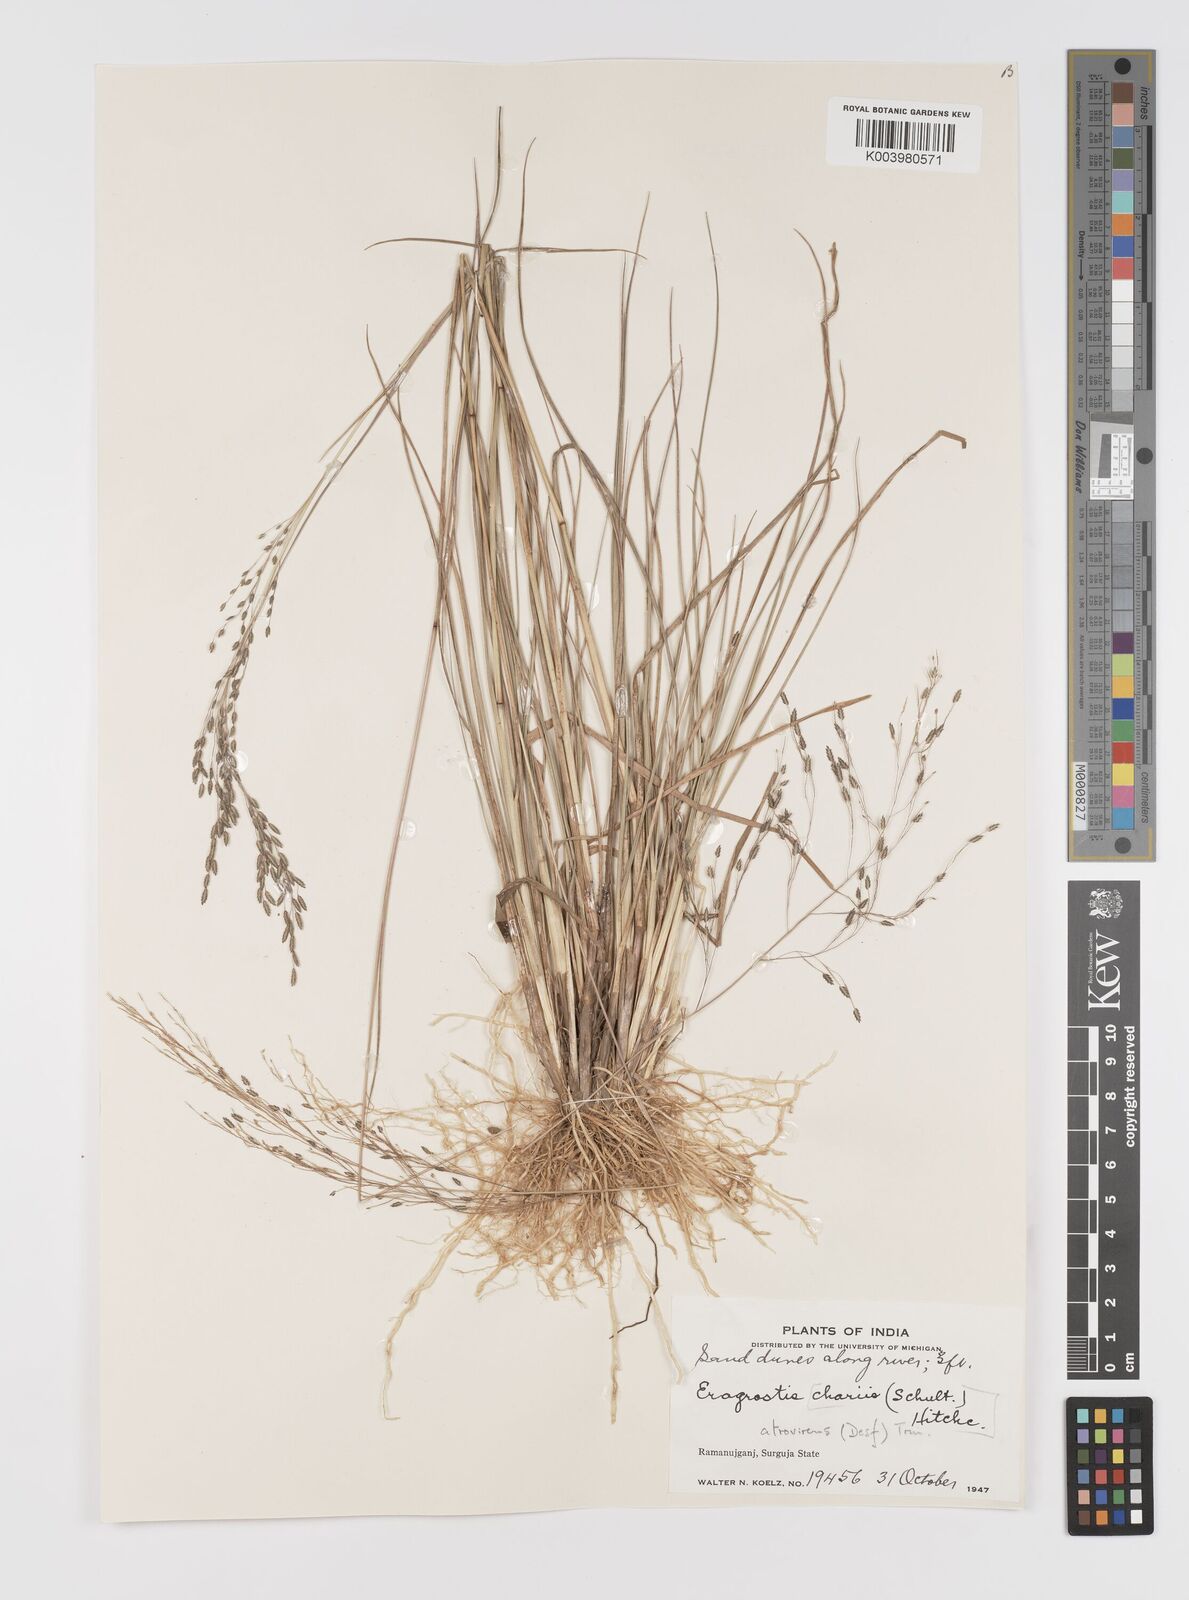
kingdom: Plantae
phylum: Tracheophyta
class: Liliopsida
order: Poales
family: Poaceae
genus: Eragrostis
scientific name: Eragrostis atrovirens
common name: Thalia lovegrass
